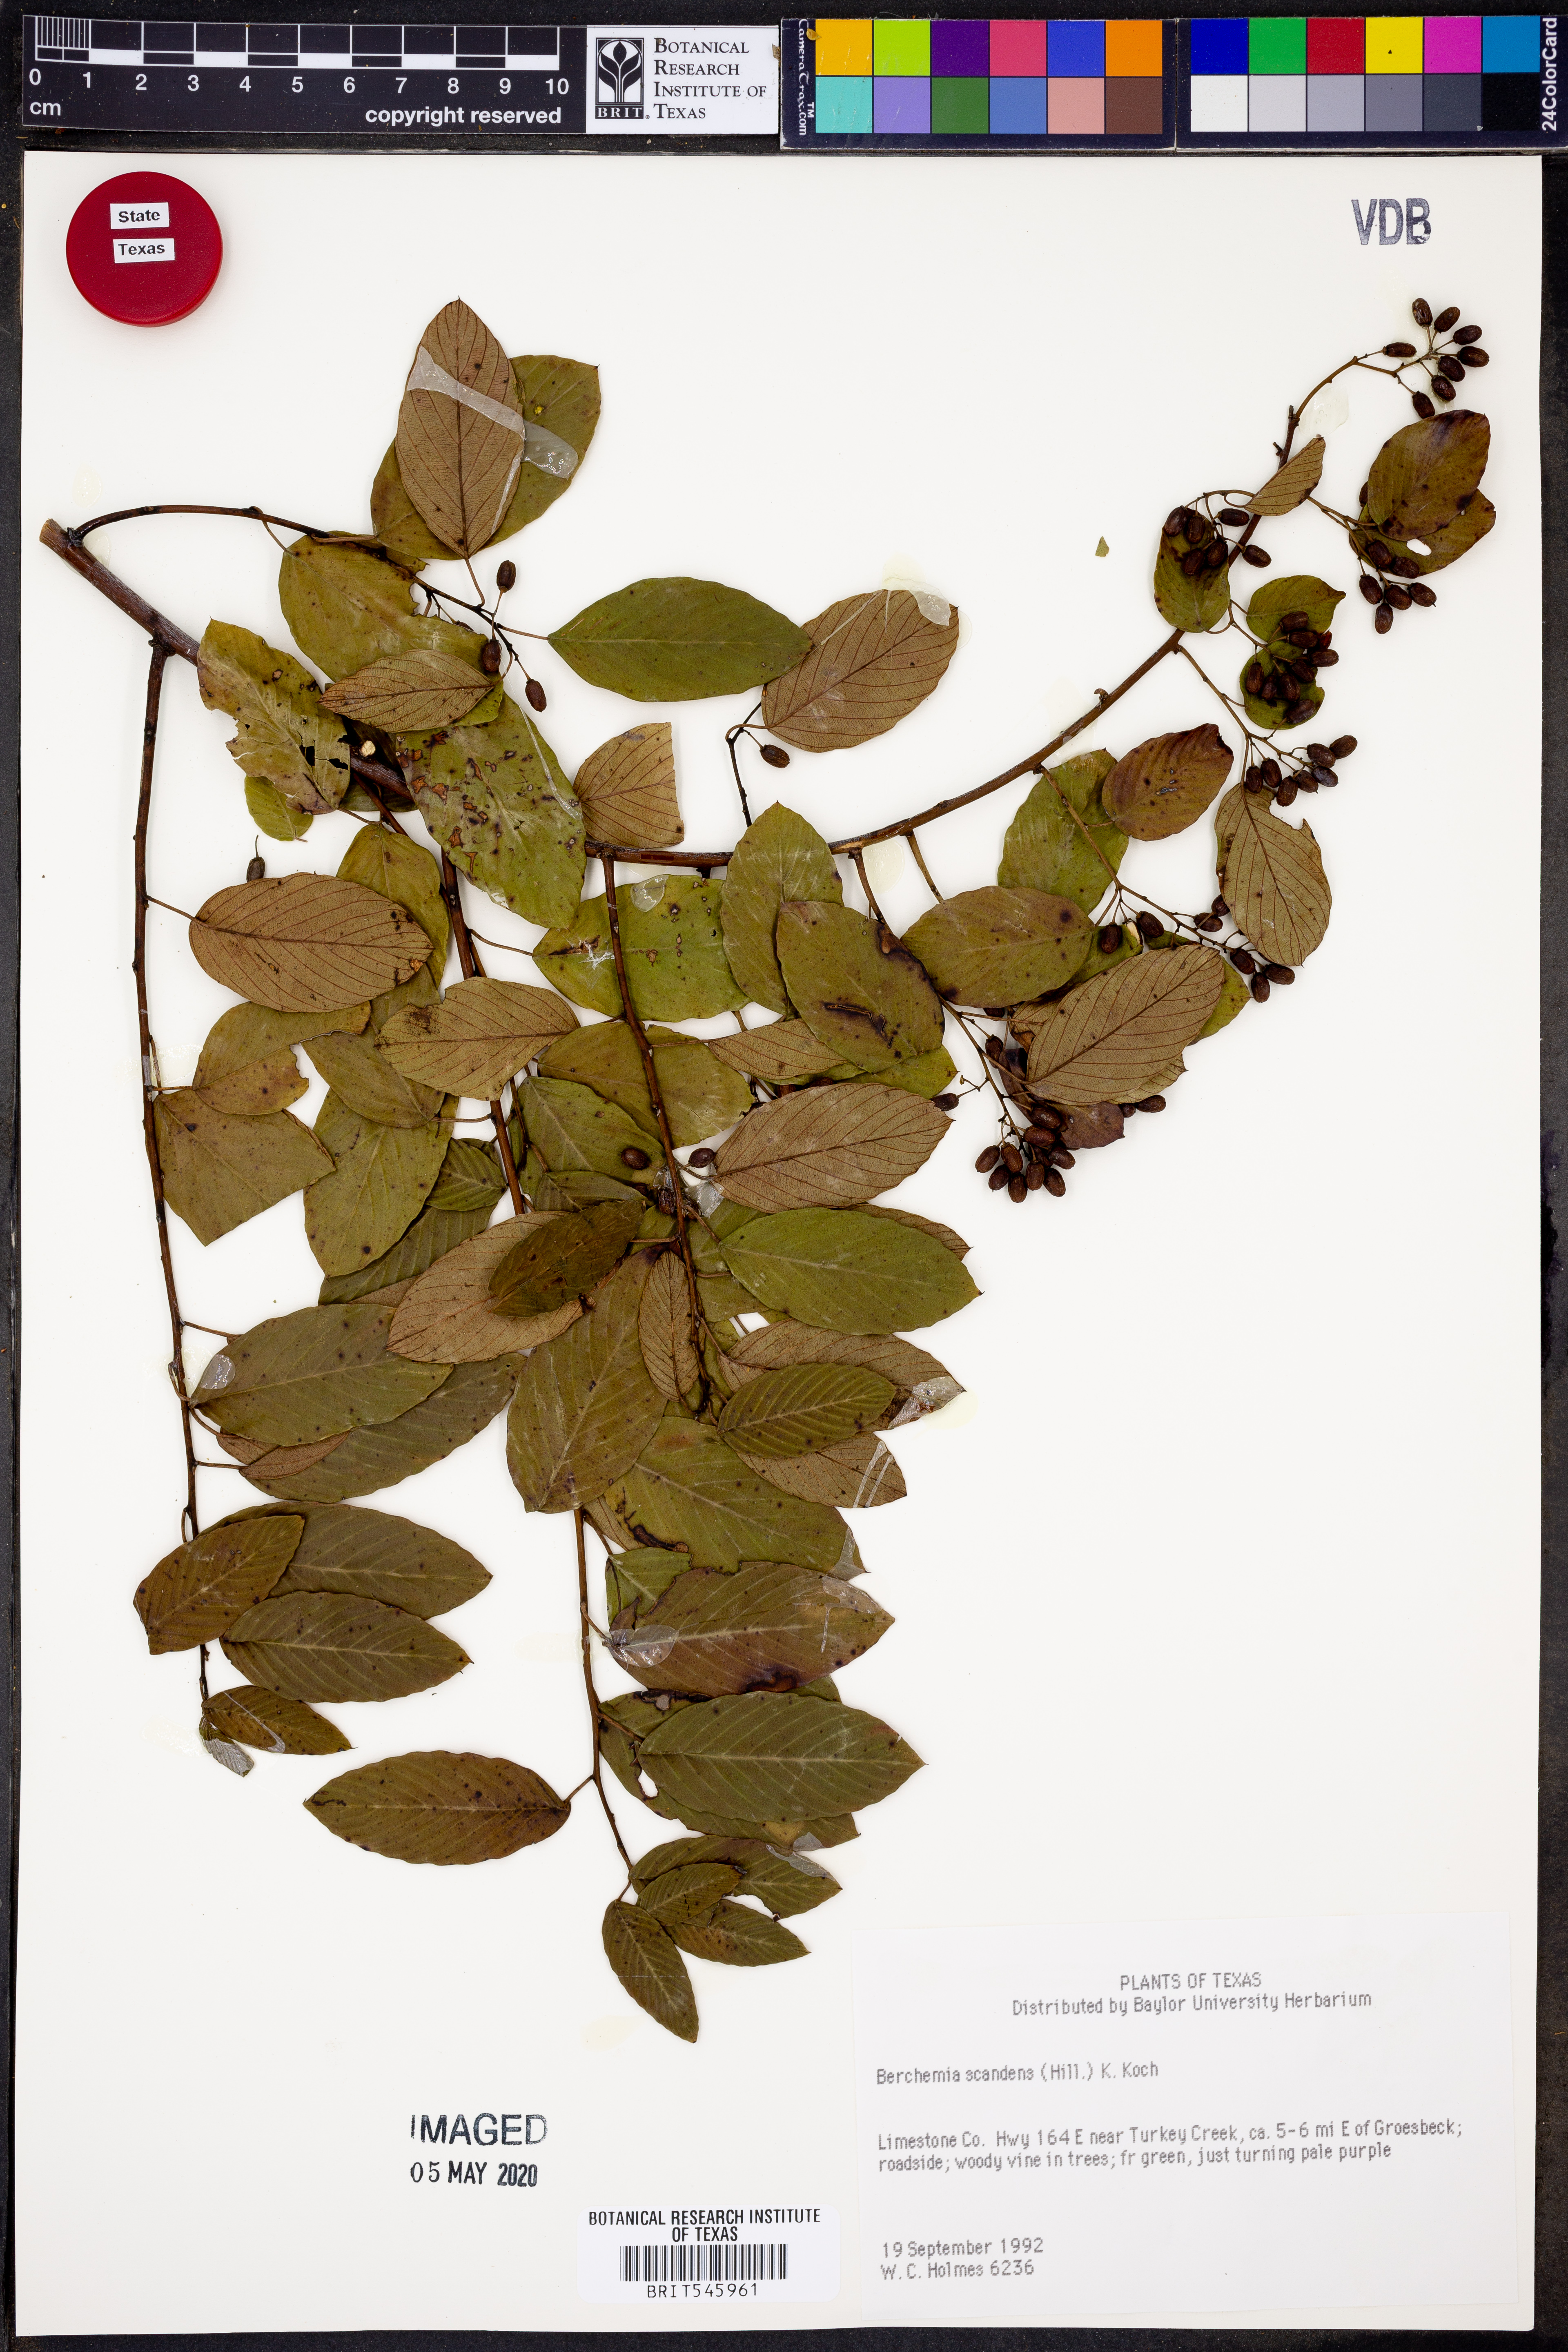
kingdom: Plantae
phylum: Tracheophyta
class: Magnoliopsida
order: Rosales
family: Rhamnaceae
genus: Berchemia
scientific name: Berchemia scandens
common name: Supplejack
